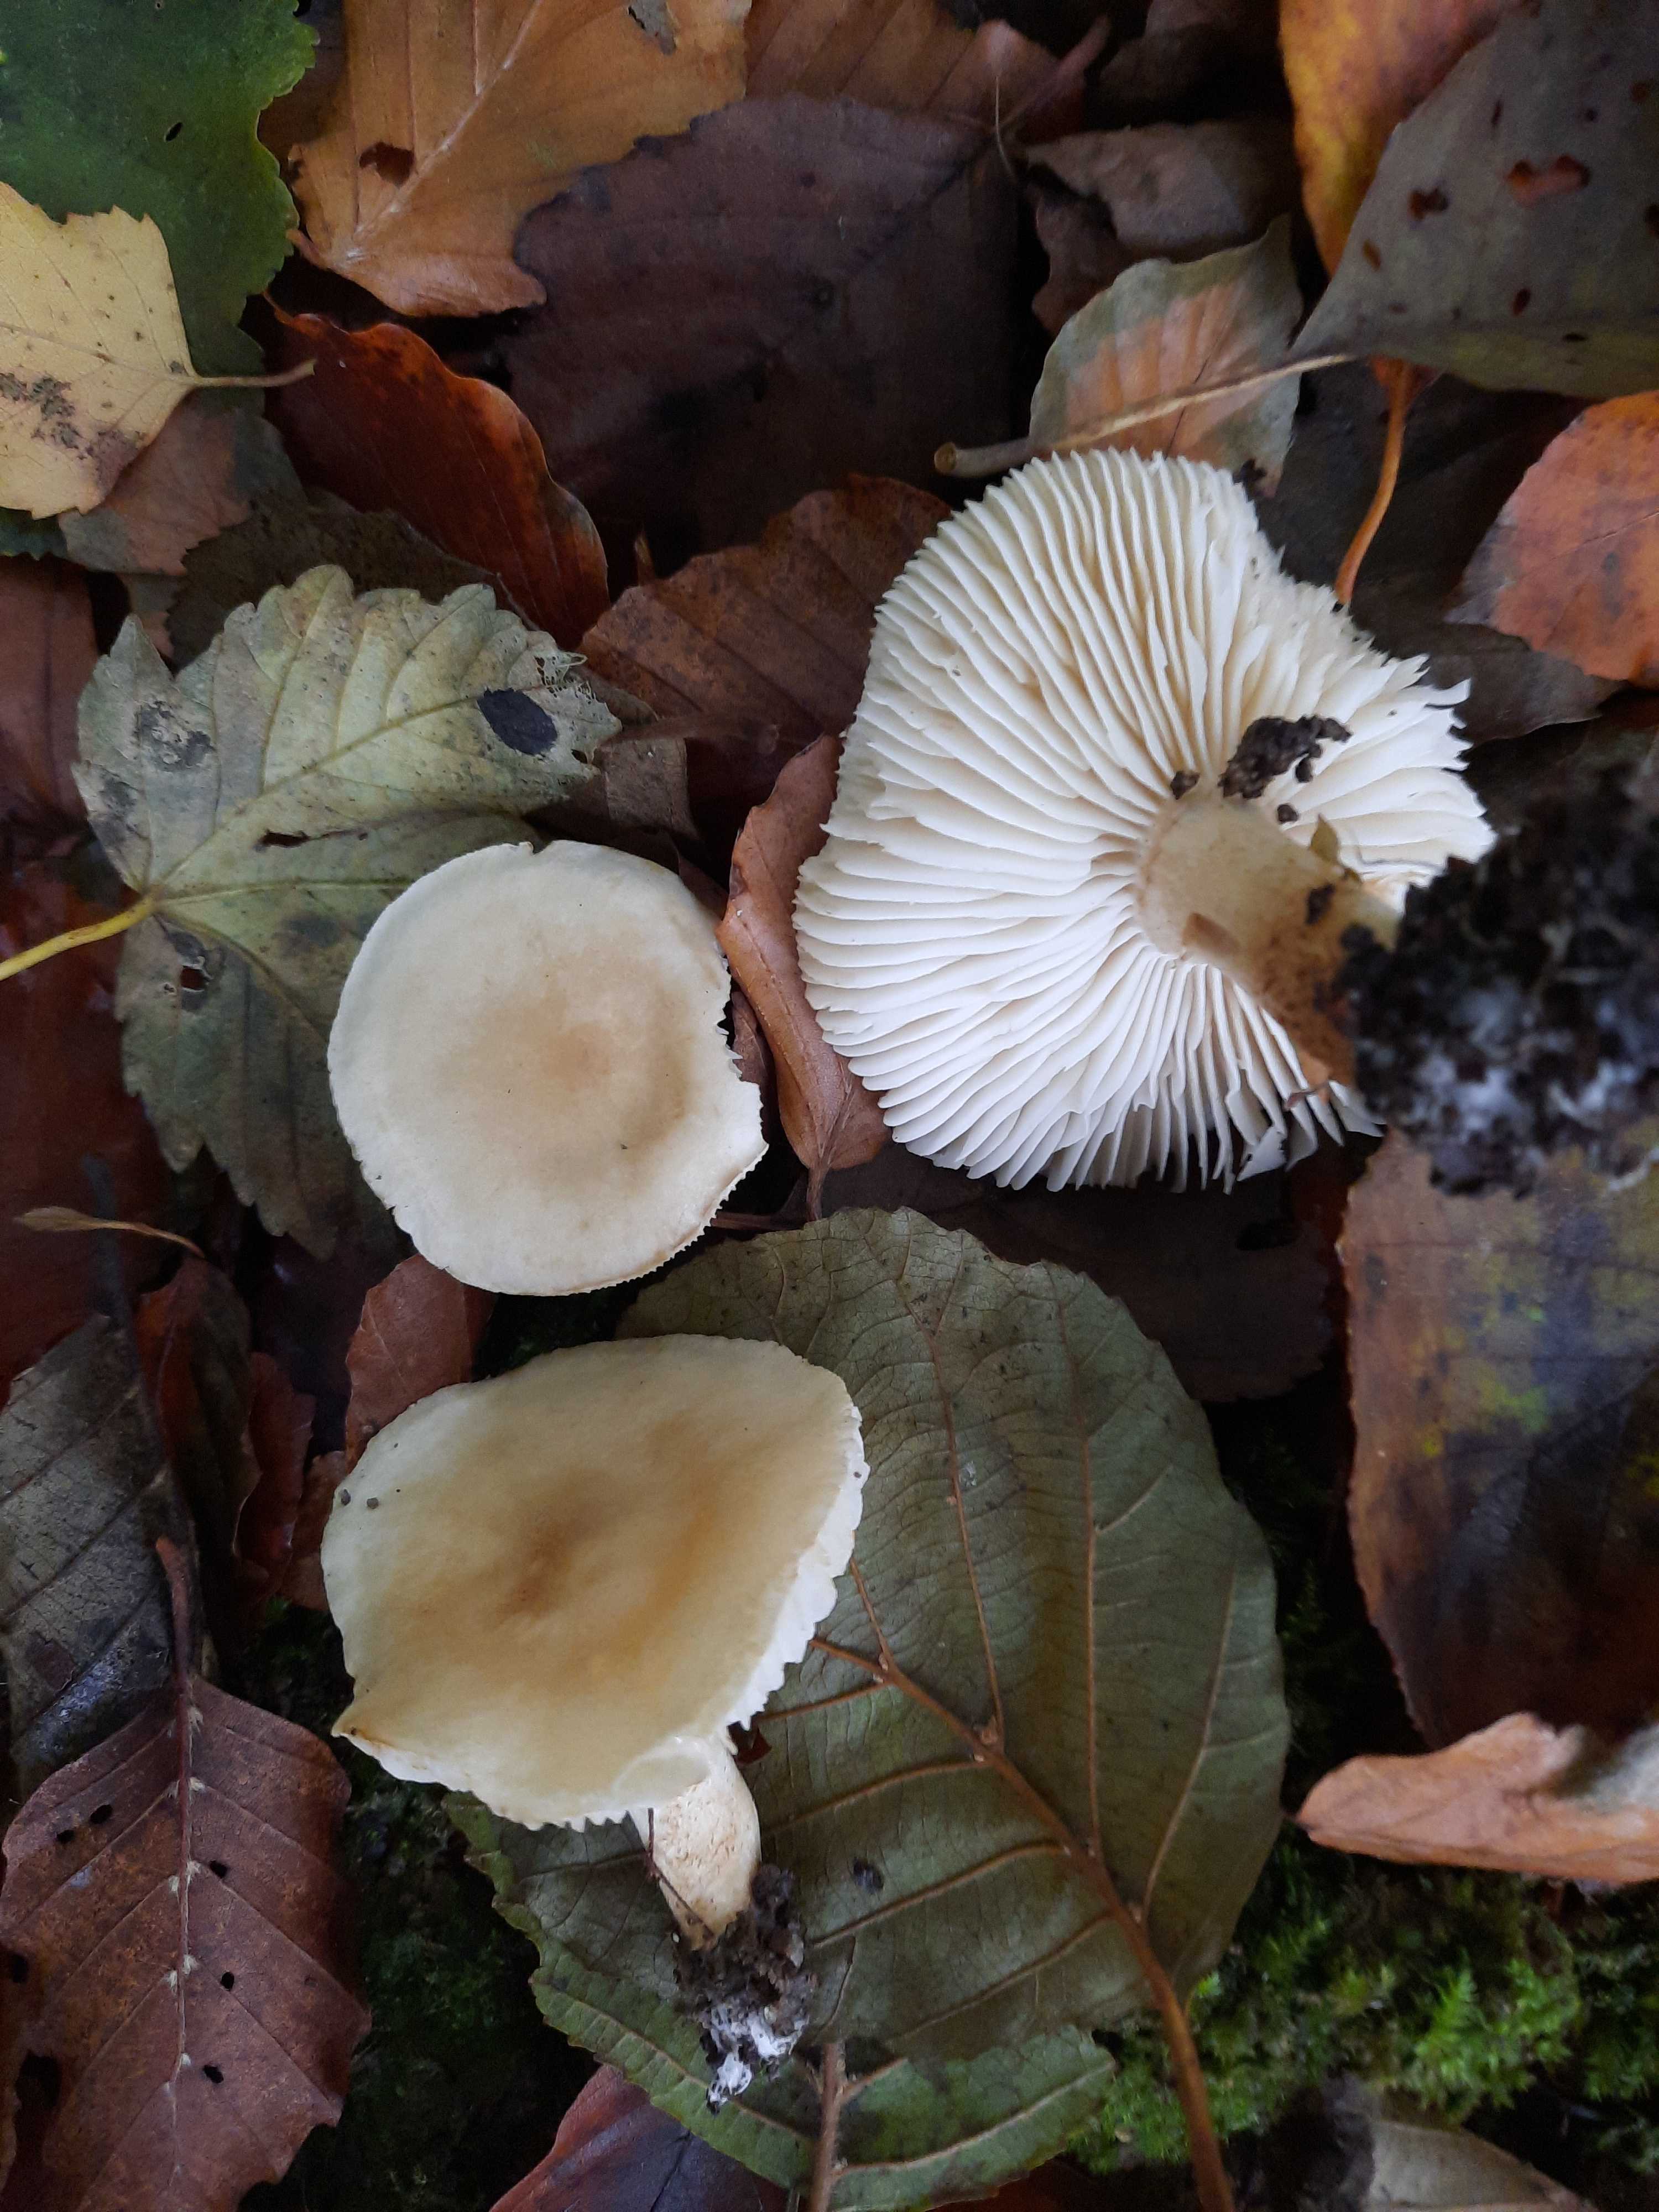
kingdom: Fungi
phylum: Basidiomycota
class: Agaricomycetes
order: Agaricales
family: Tricholomataceae
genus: Tricholoma
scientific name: Tricholoma album
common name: honning-ridderhat
